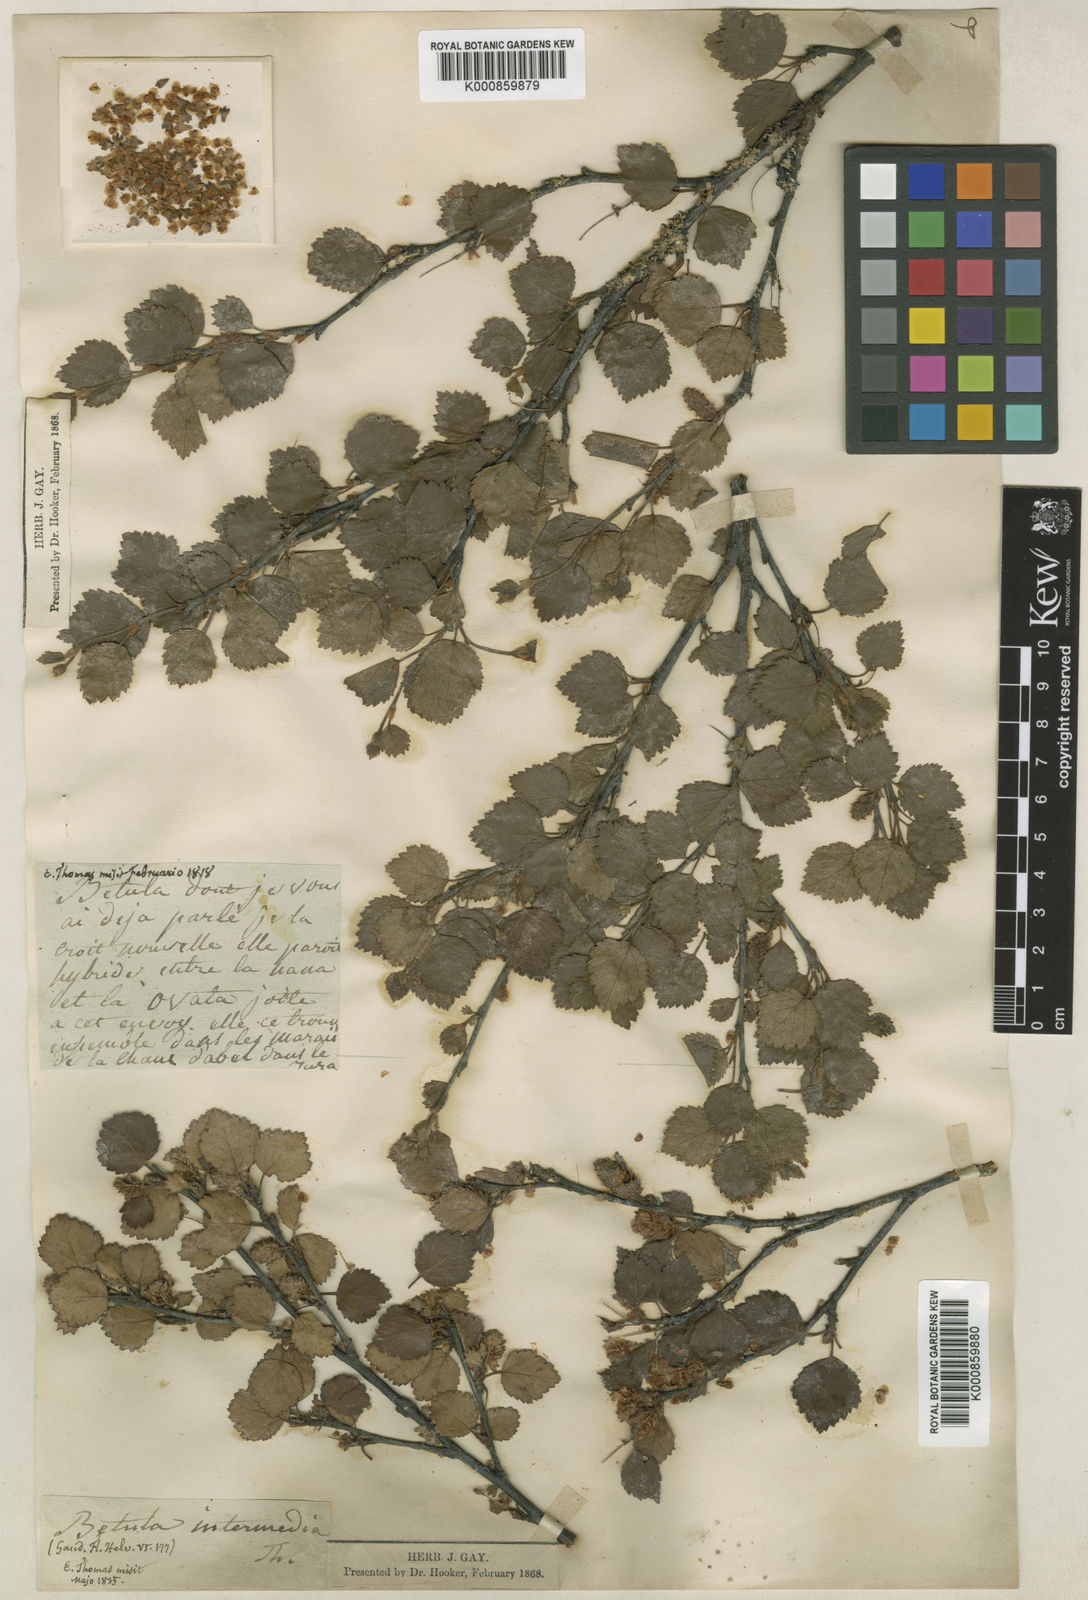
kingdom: Plantae
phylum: Tracheophyta
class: Magnoliopsida
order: Fagales
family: Betulaceae
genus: Betula
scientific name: Betula
